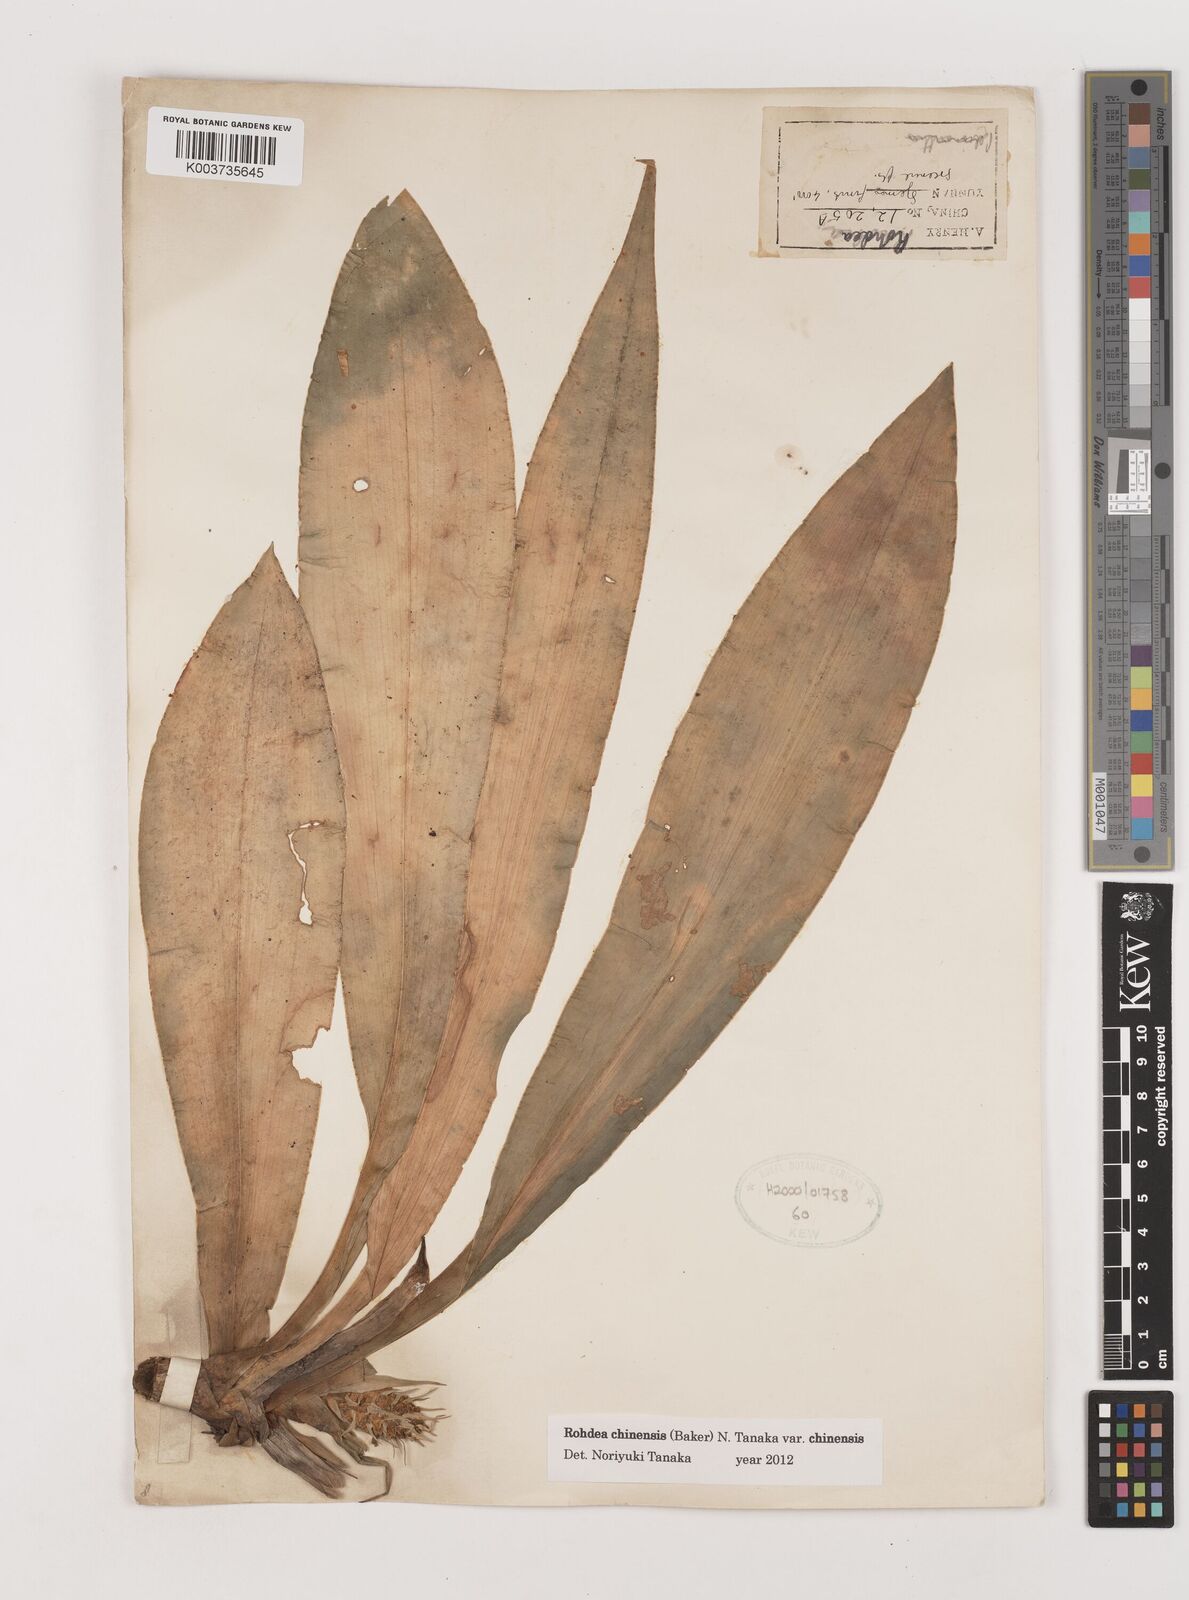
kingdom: Plantae
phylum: Tracheophyta
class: Liliopsida
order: Asparagales
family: Asparagaceae
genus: Rohdea
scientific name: Rohdea fargesii
